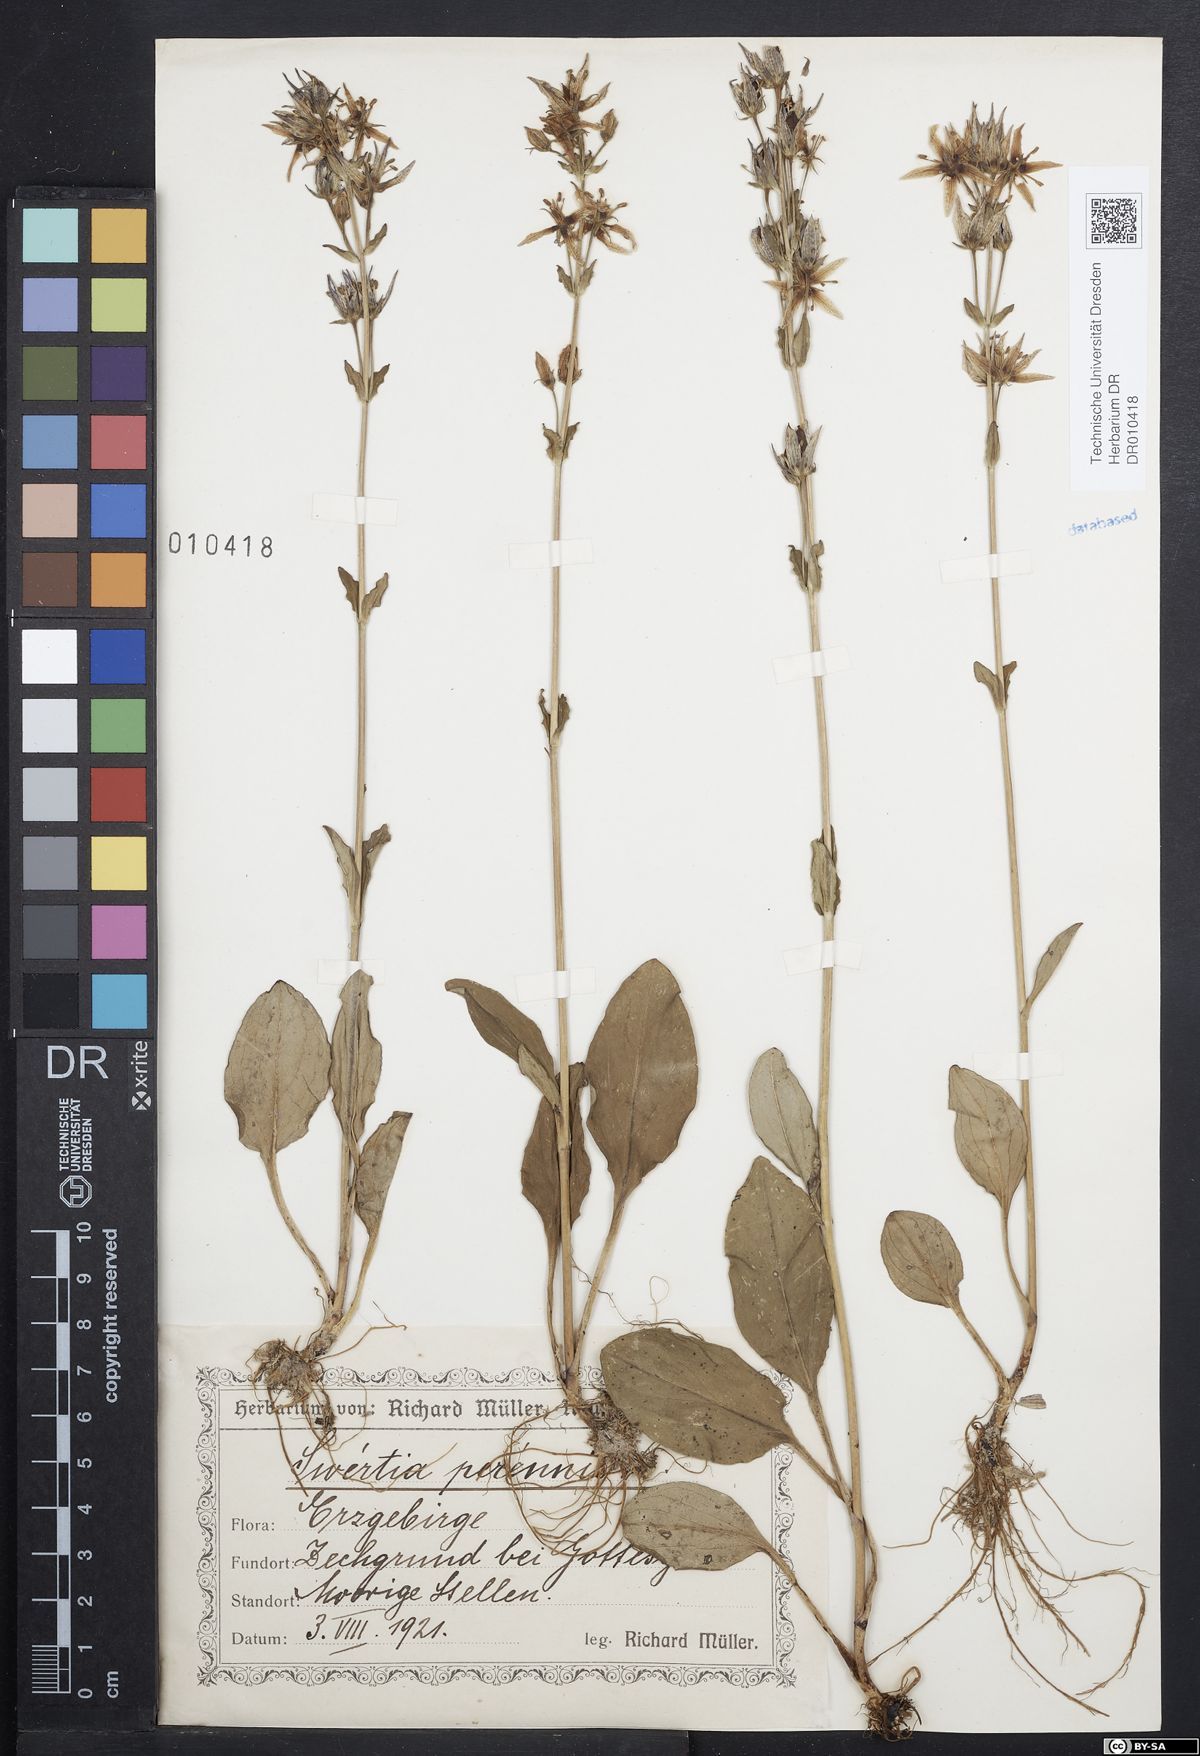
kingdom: Plantae
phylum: Tracheophyta
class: Magnoliopsida
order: Gentianales
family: Gentianaceae
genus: Swertia
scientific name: Swertia perennis
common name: Alpine bog swertia
